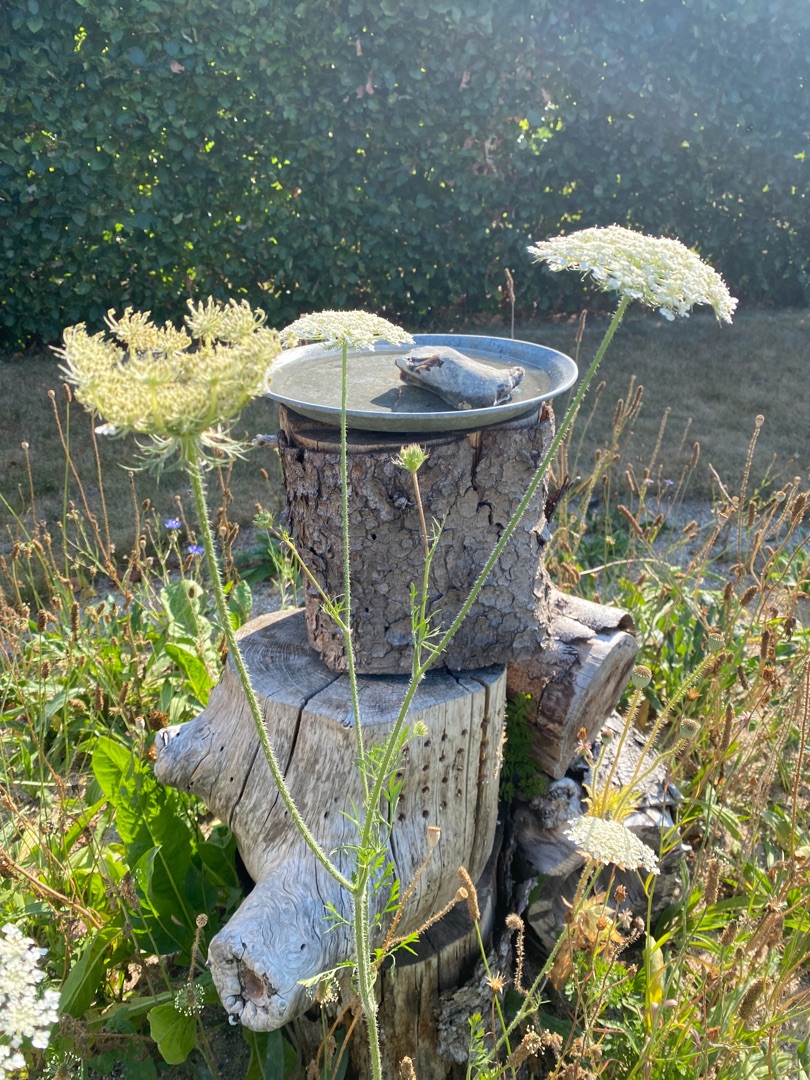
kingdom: Plantae
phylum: Tracheophyta
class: Magnoliopsida
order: Apiales
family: Apiaceae
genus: Daucus
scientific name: Daucus carota
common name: Vild gulerod
